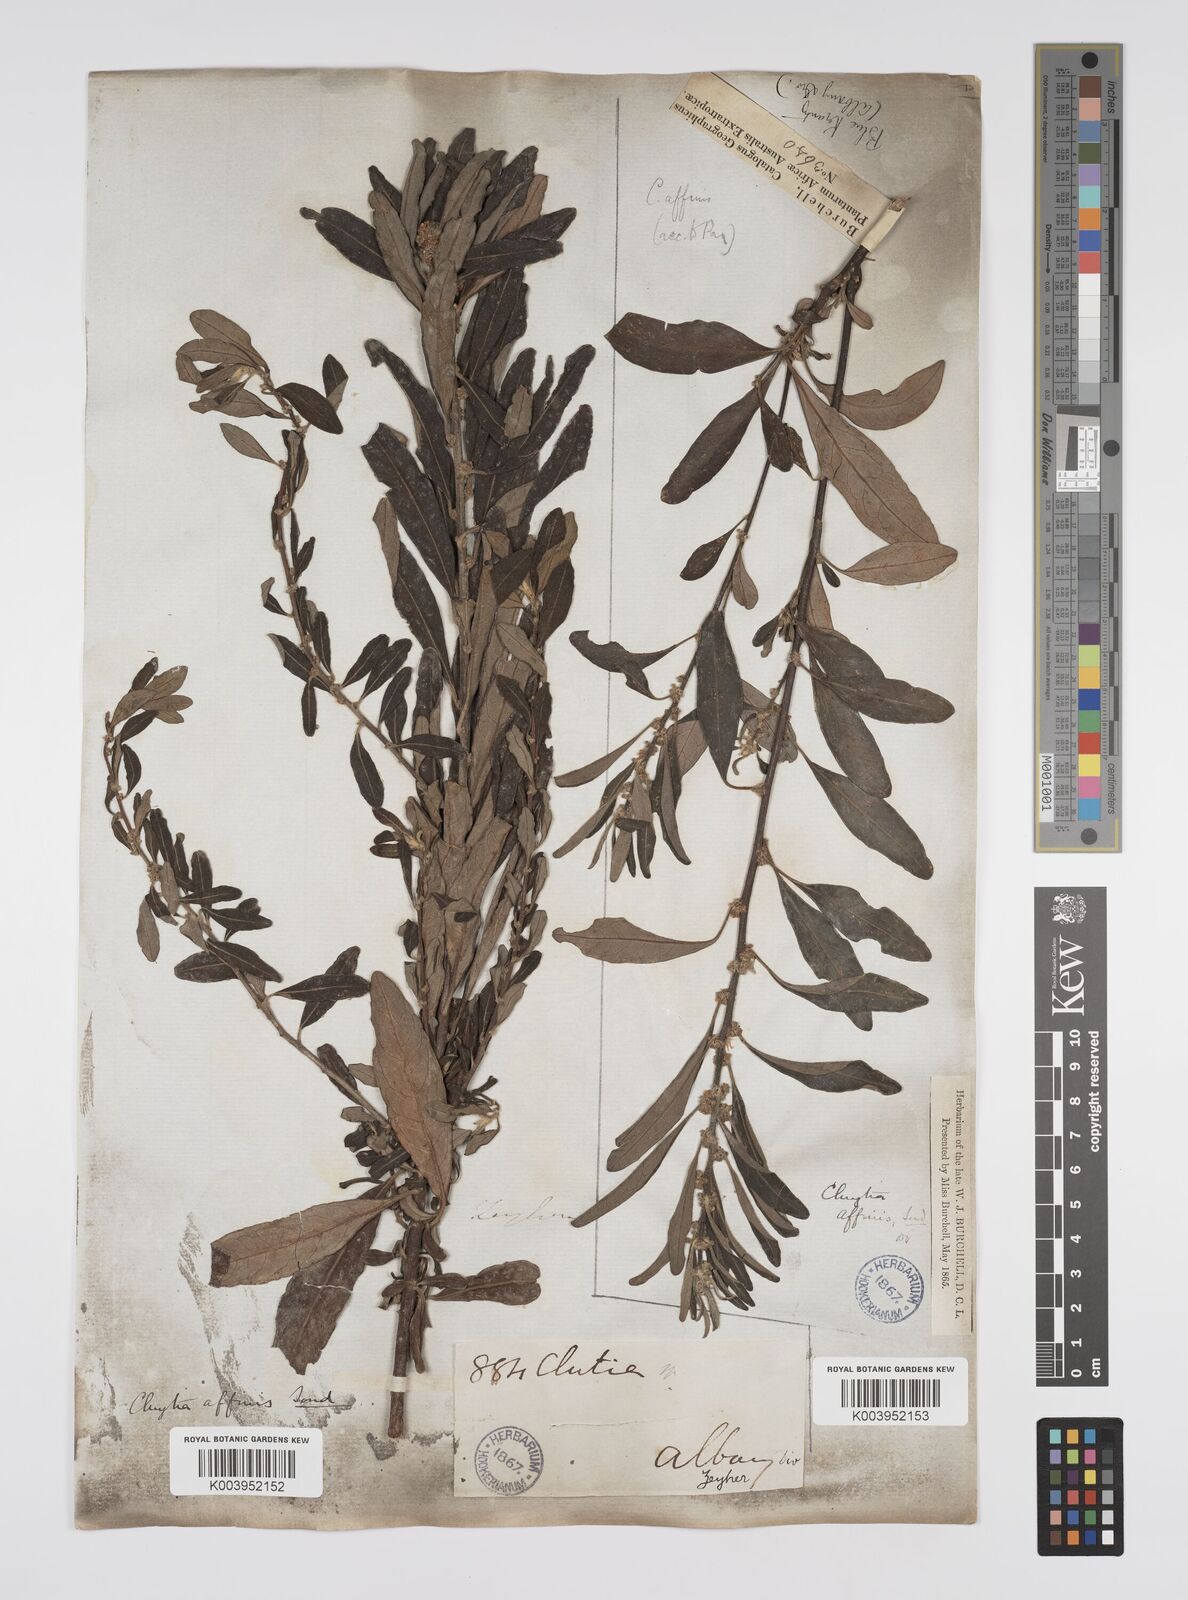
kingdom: Plantae
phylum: Tracheophyta
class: Magnoliopsida
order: Malpighiales
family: Peraceae
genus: Clutia
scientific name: Clutia affinis
